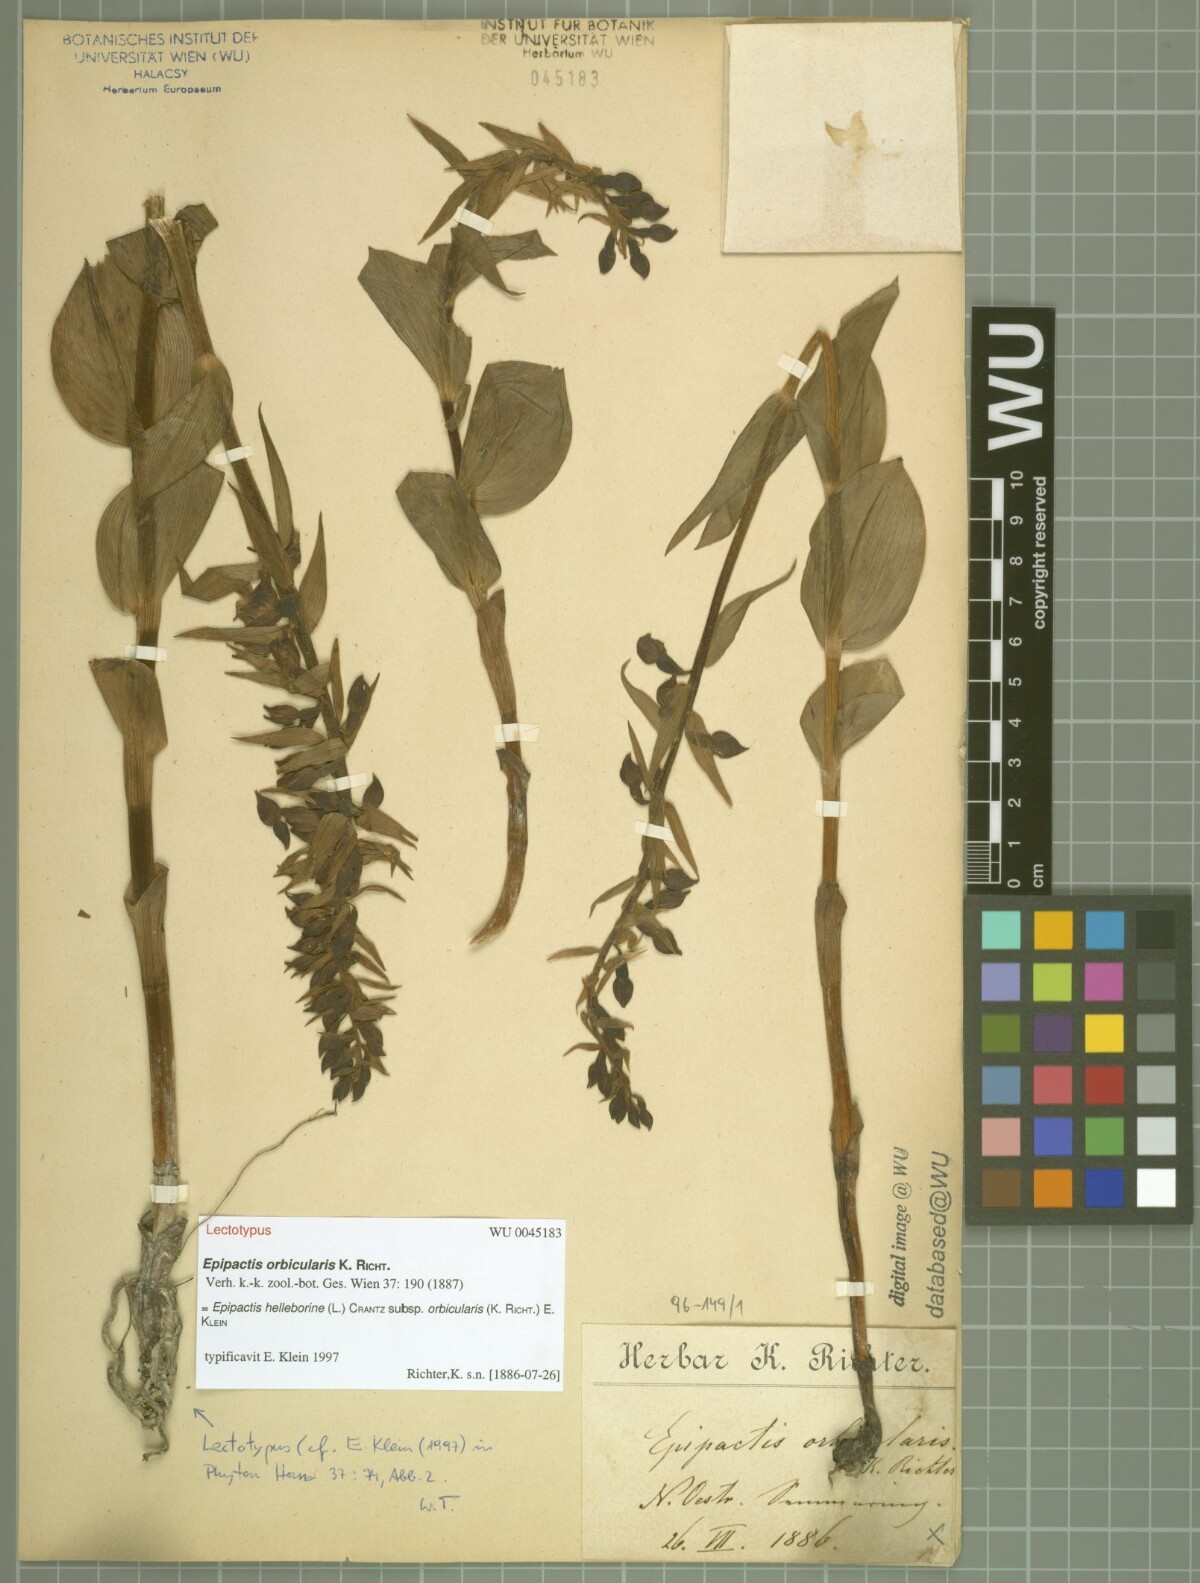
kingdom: Plantae
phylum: Tracheophyta
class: Liliopsida
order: Asparagales
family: Orchidaceae
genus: Epipactis
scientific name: Epipactis helleborine
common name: Broad-leaved helleborine
